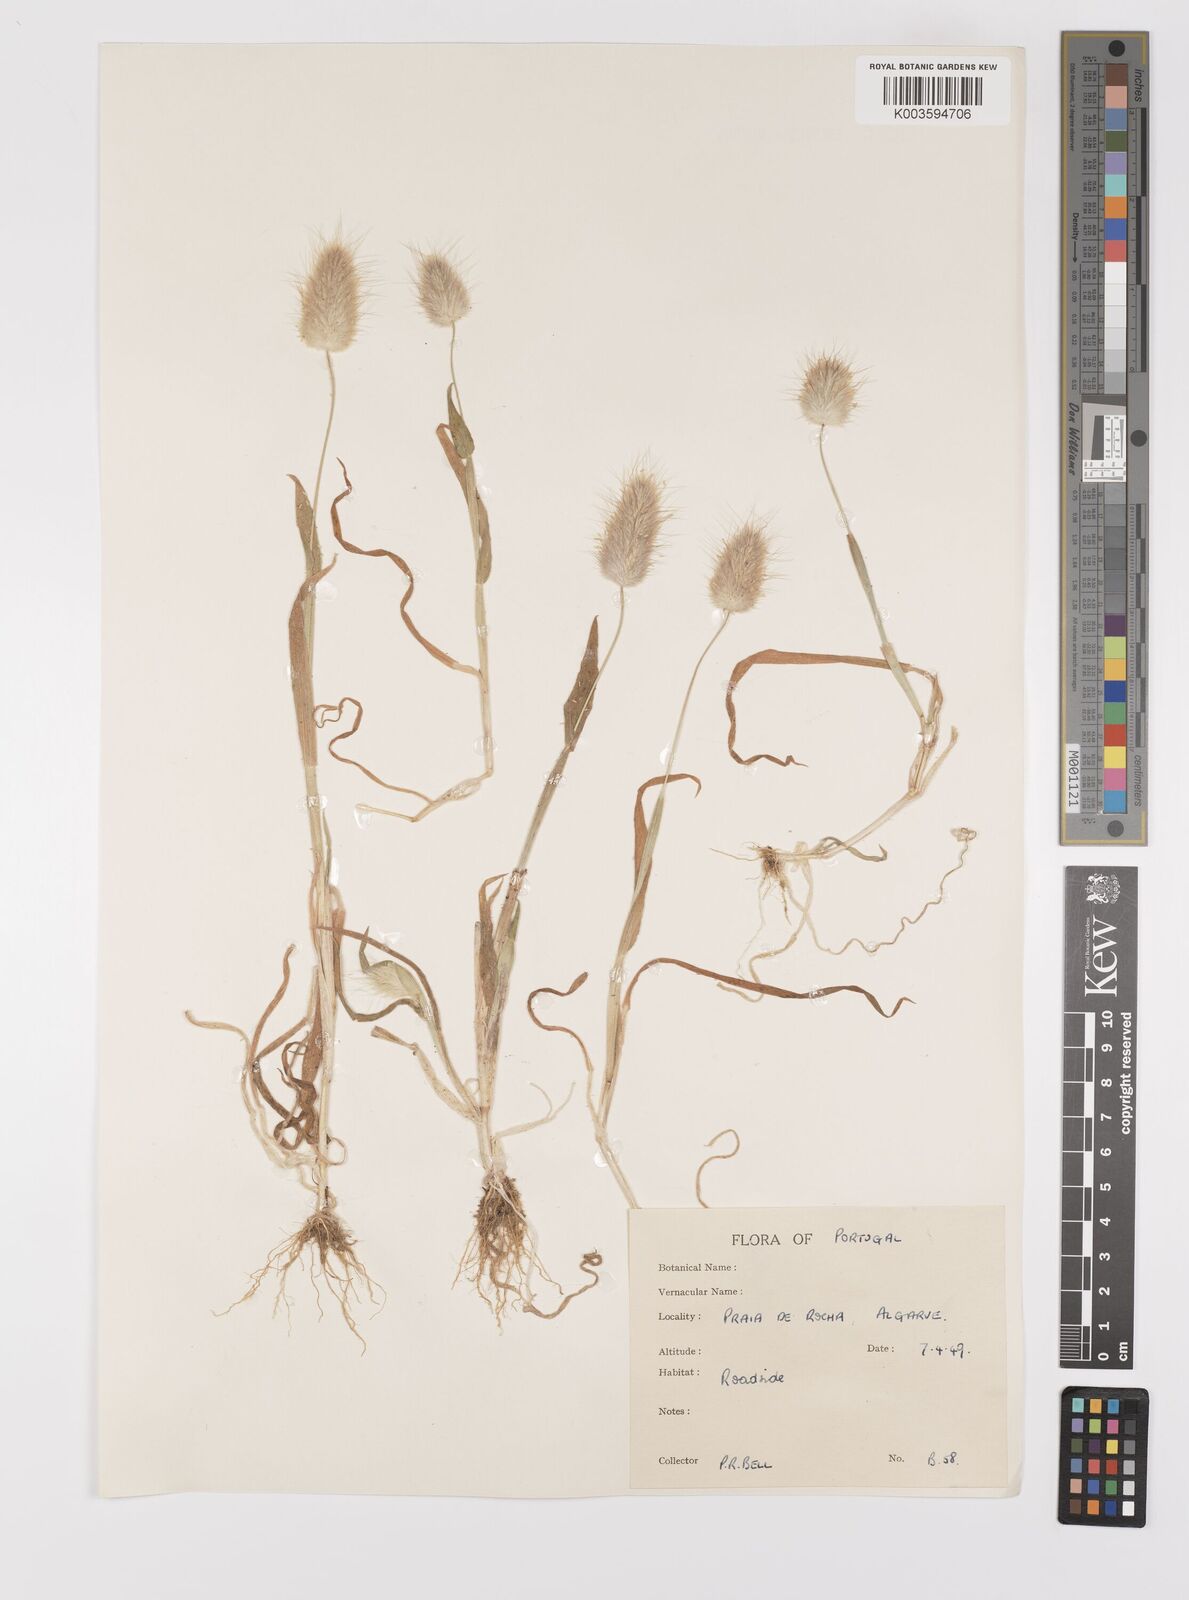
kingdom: Plantae
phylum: Tracheophyta
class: Liliopsida
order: Poales
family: Poaceae
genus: Lagurus
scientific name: Lagurus ovatus
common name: Hare's-tail
